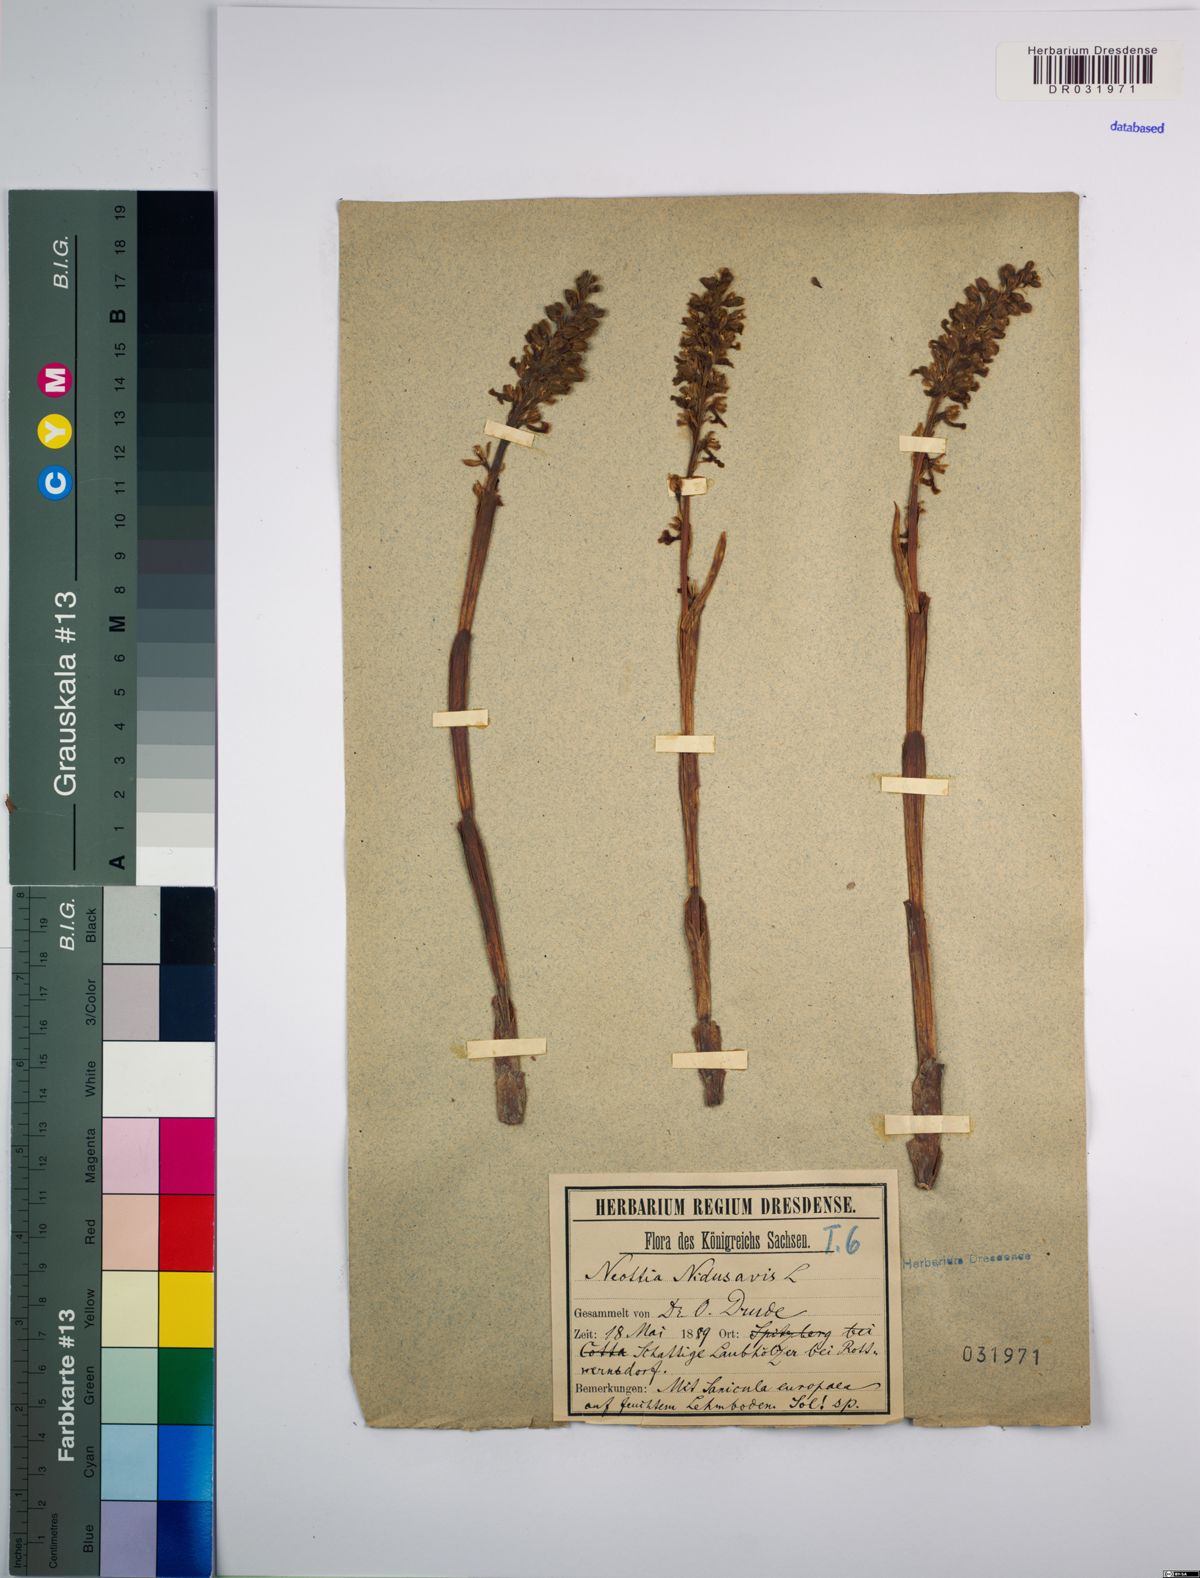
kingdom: Plantae
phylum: Tracheophyta
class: Liliopsida
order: Asparagales
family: Orchidaceae
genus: Neottia
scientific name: Neottia nidus-avis
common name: Bird's-nest orchid
